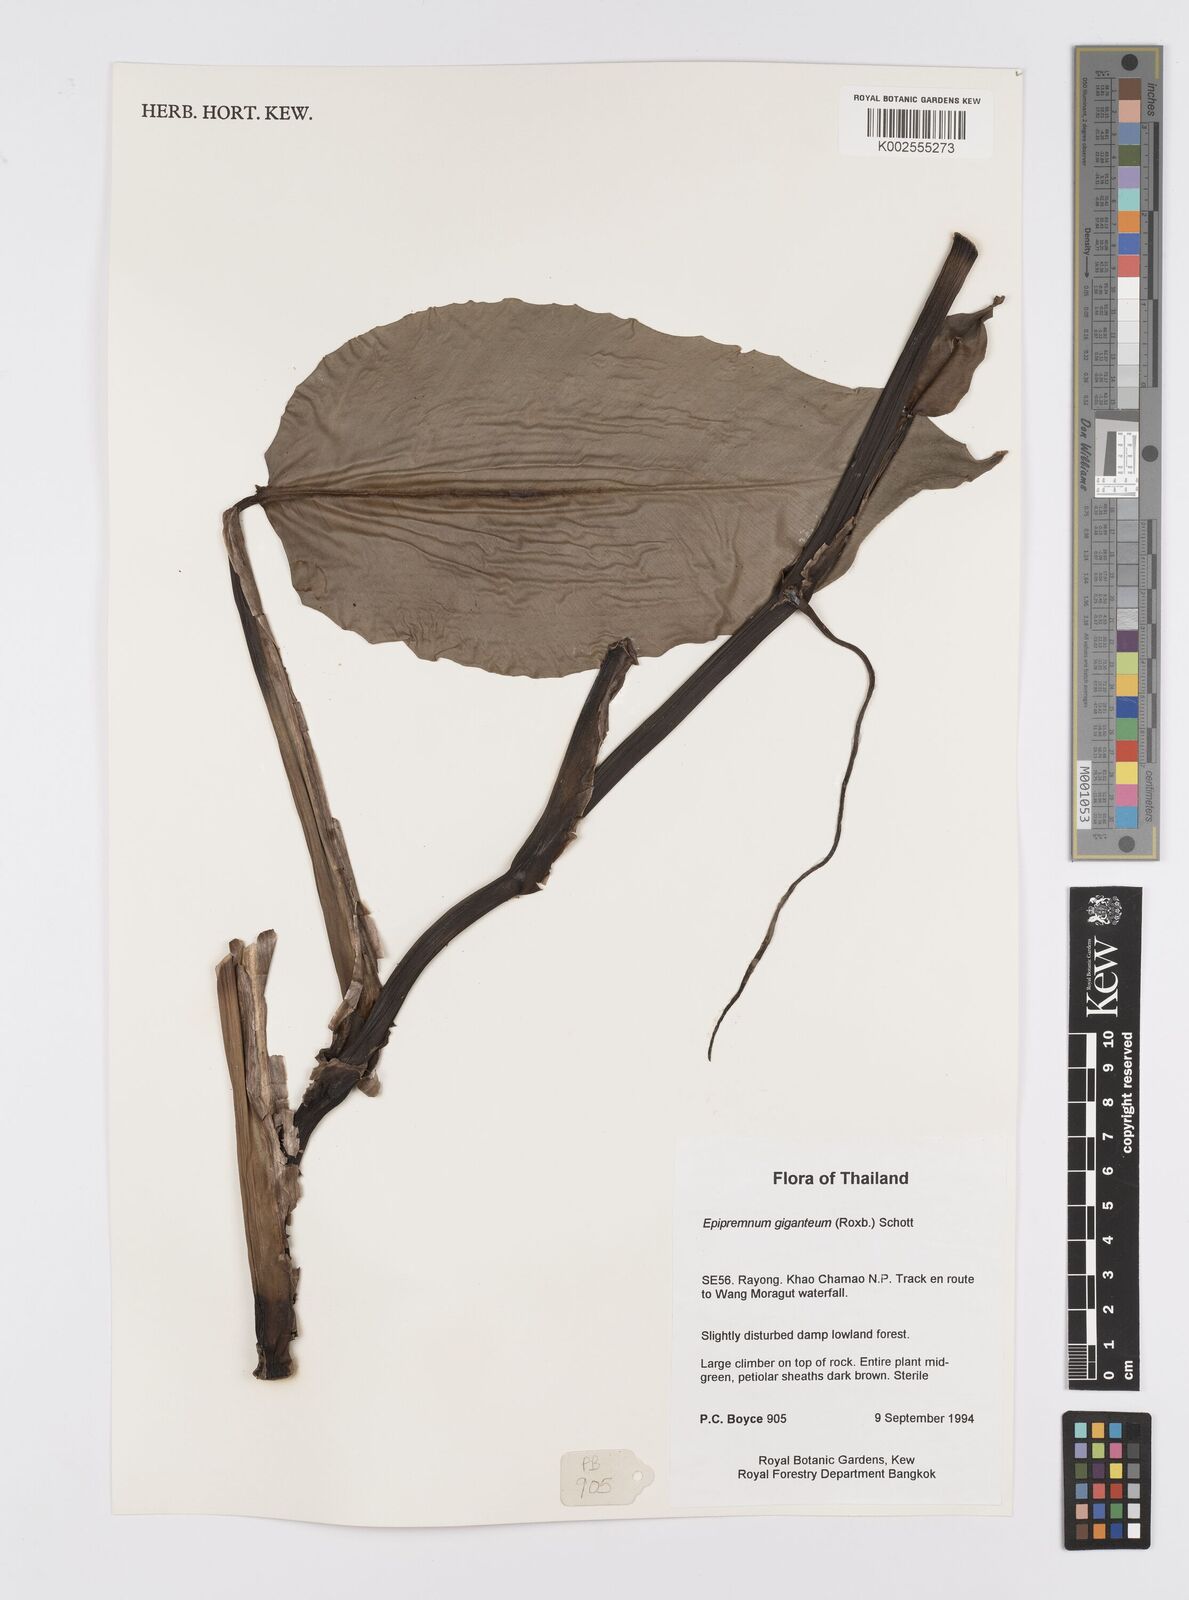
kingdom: Plantae
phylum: Tracheophyta
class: Liliopsida
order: Alismatales
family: Araceae
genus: Epipremnum
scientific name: Epipremnum giganteum
